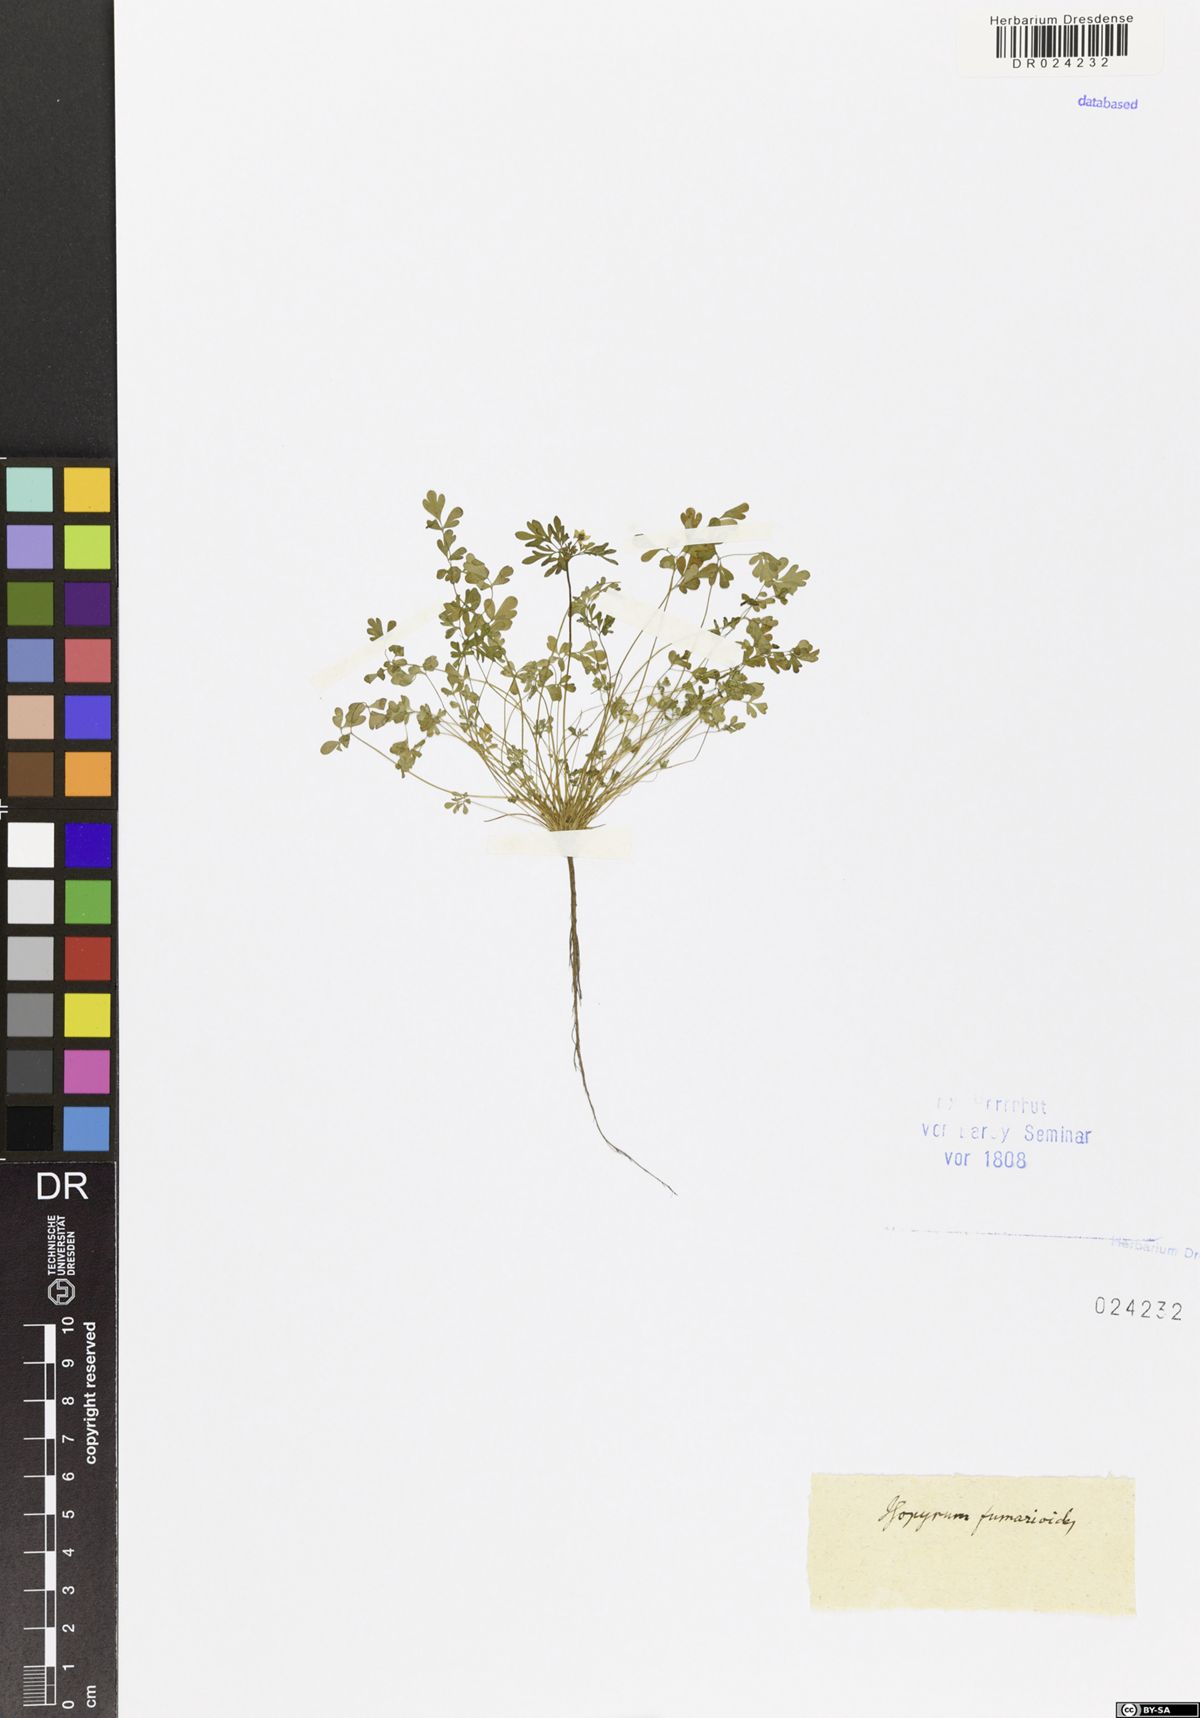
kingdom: Plantae
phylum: Tracheophyta
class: Magnoliopsida
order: Ranunculales
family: Ranunculaceae
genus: Leptopyrum
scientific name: Leptopyrum fumarioides
